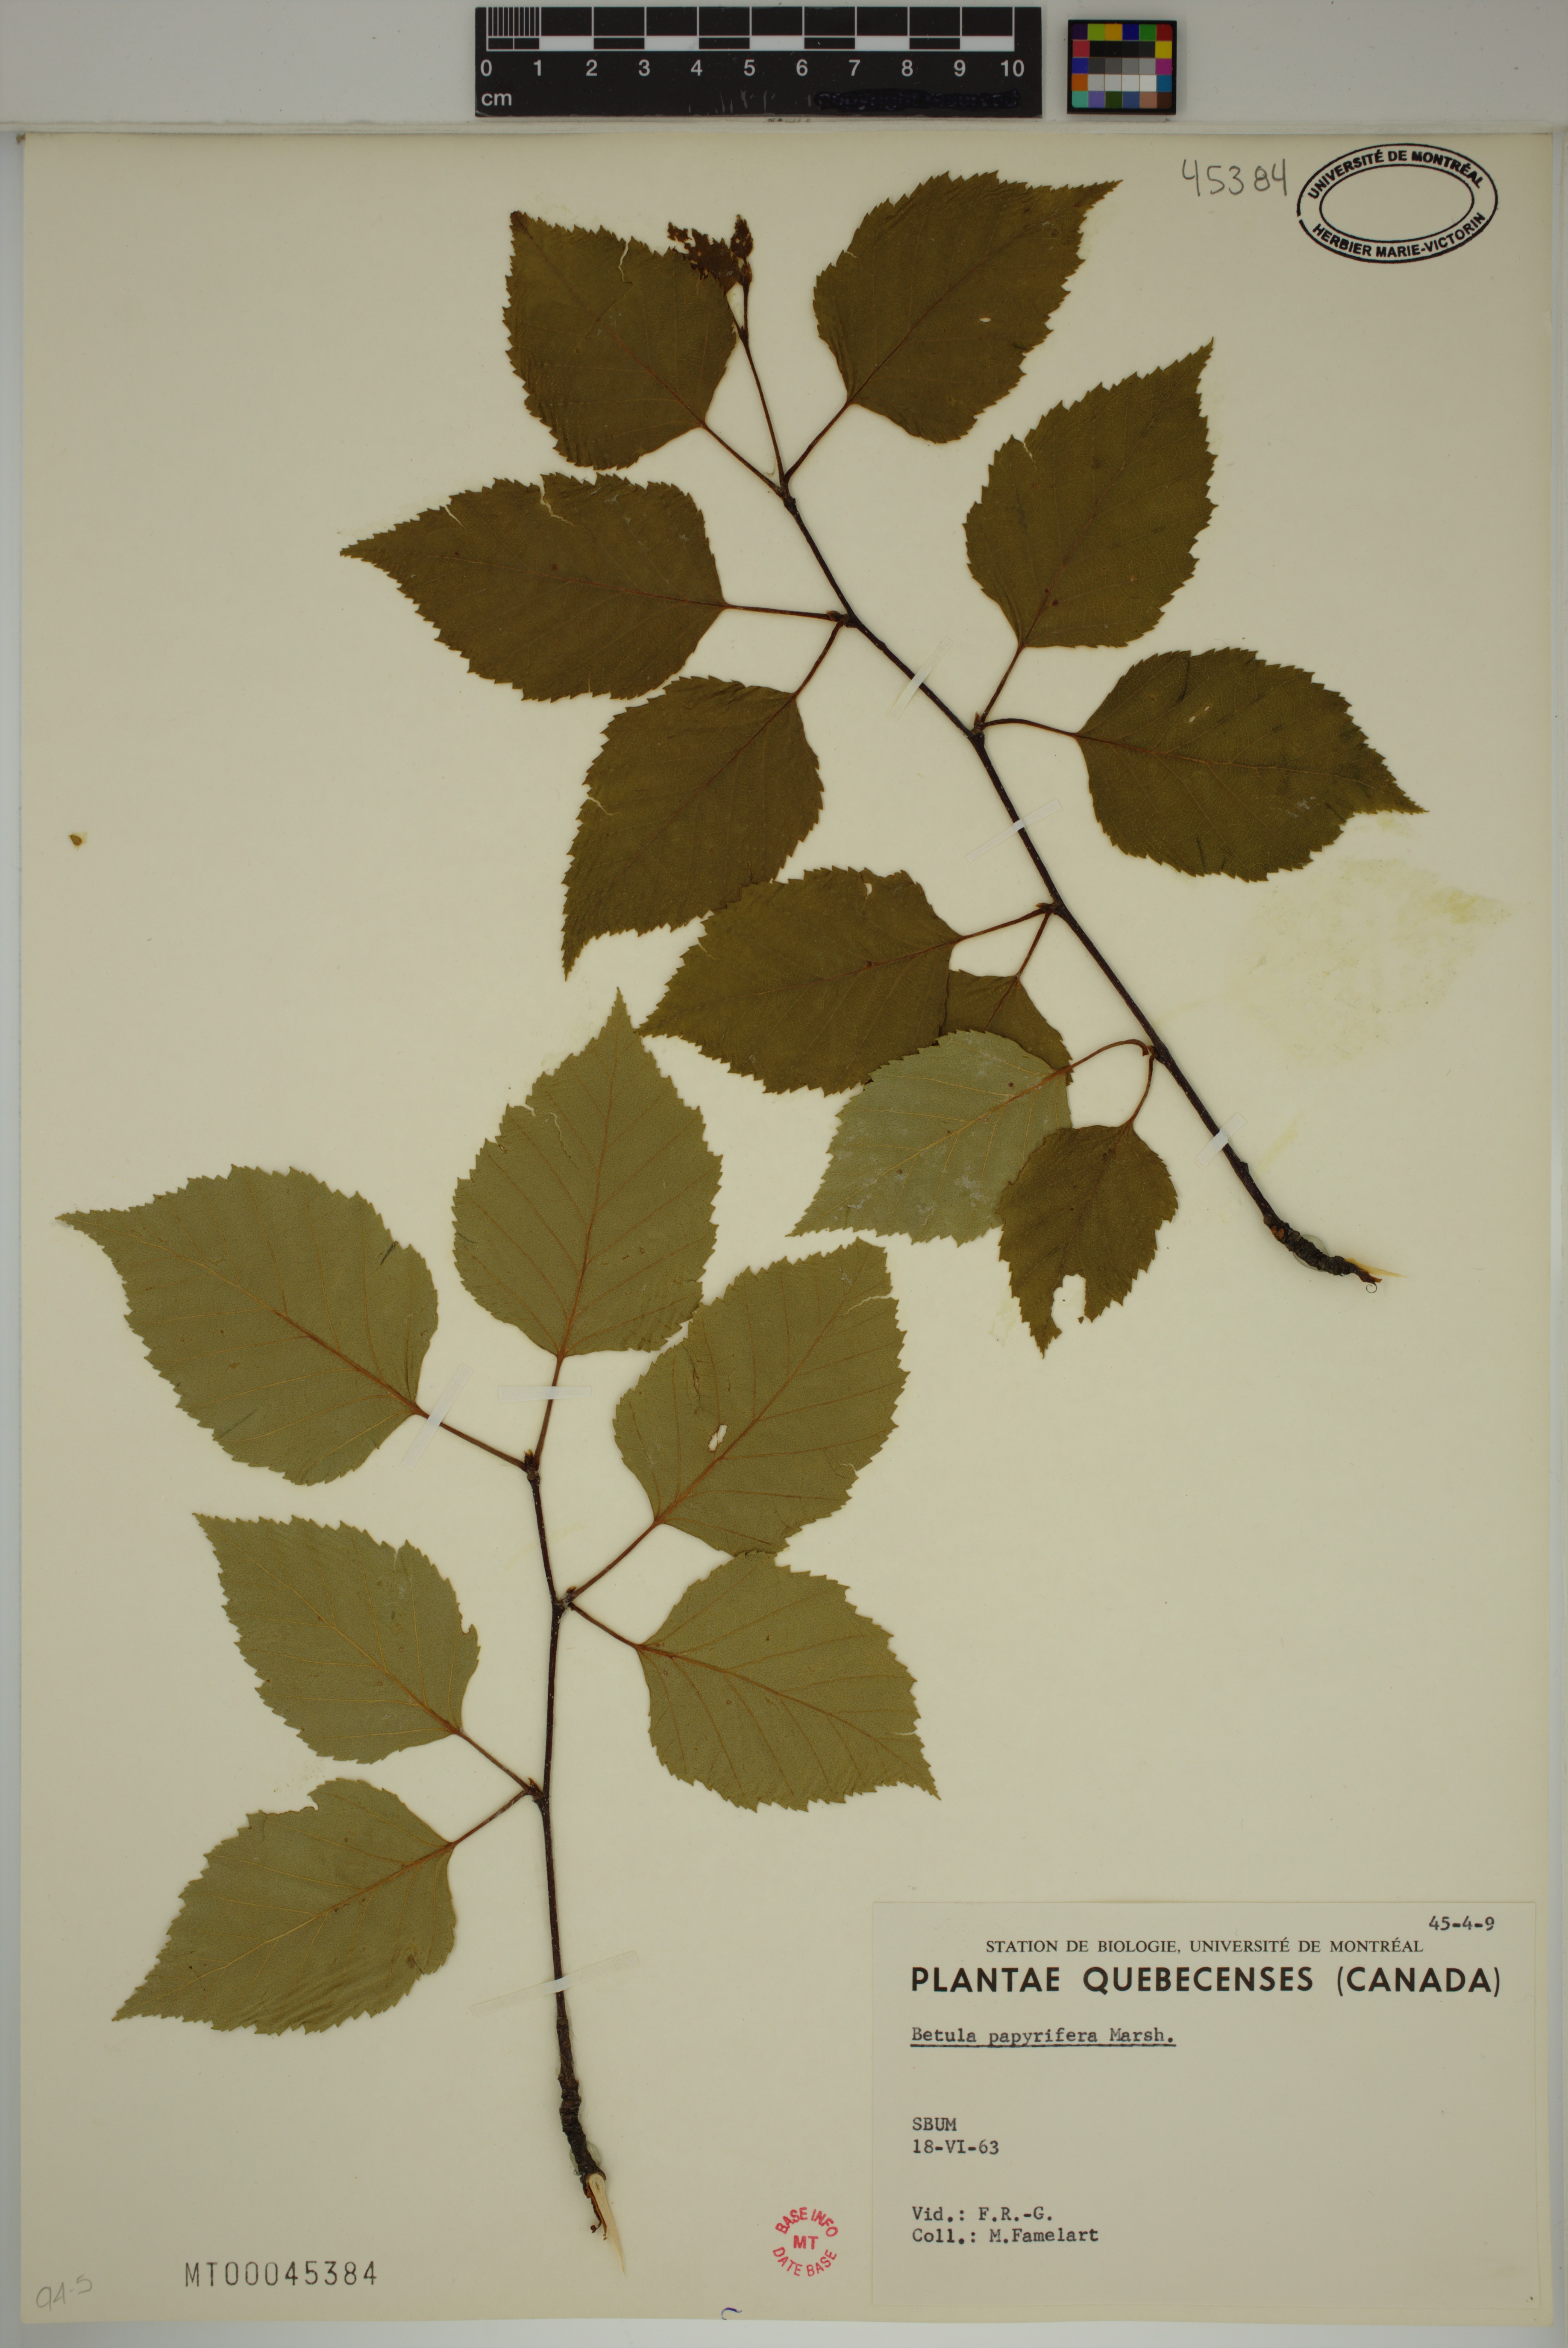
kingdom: Plantae
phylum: Tracheophyta
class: Magnoliopsida
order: Fagales
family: Betulaceae
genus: Betula
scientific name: Betula papyrifera
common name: Paper birch
